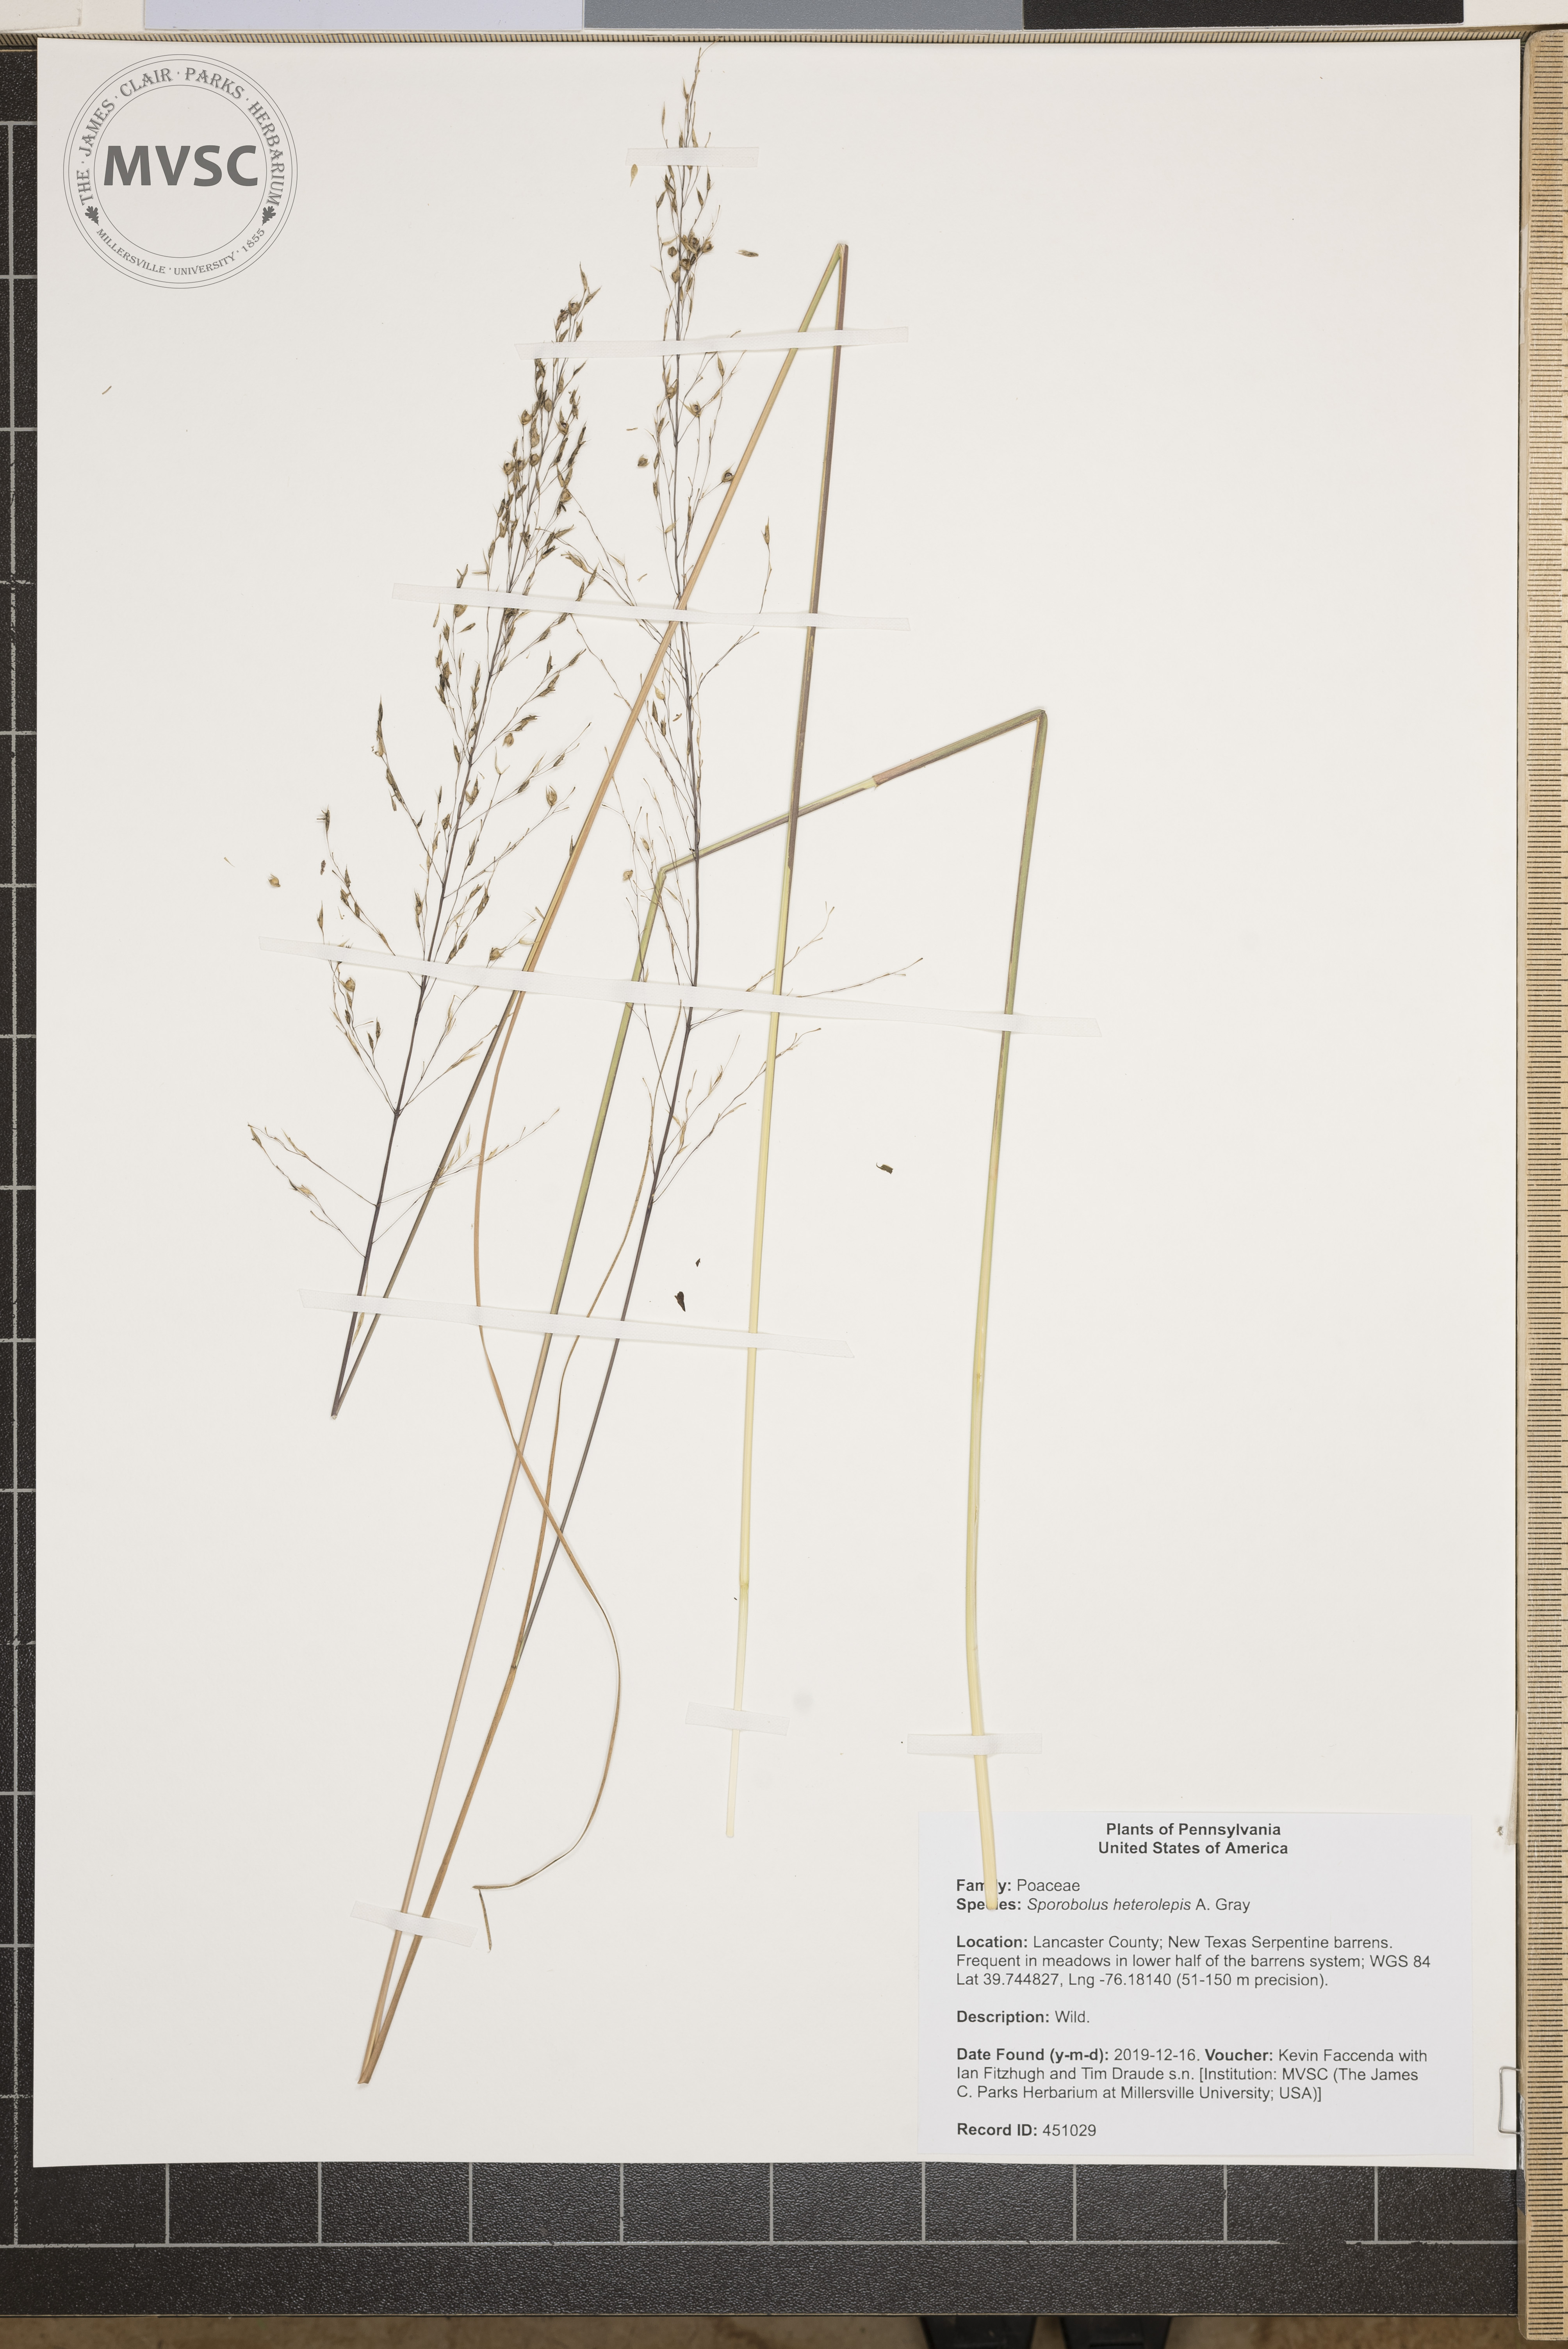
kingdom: Plantae
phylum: Tracheophyta
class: Liliopsida
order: Poales
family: Poaceae
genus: Sporobolus
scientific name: Sporobolus heterolepis
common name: Prairie dropseed
